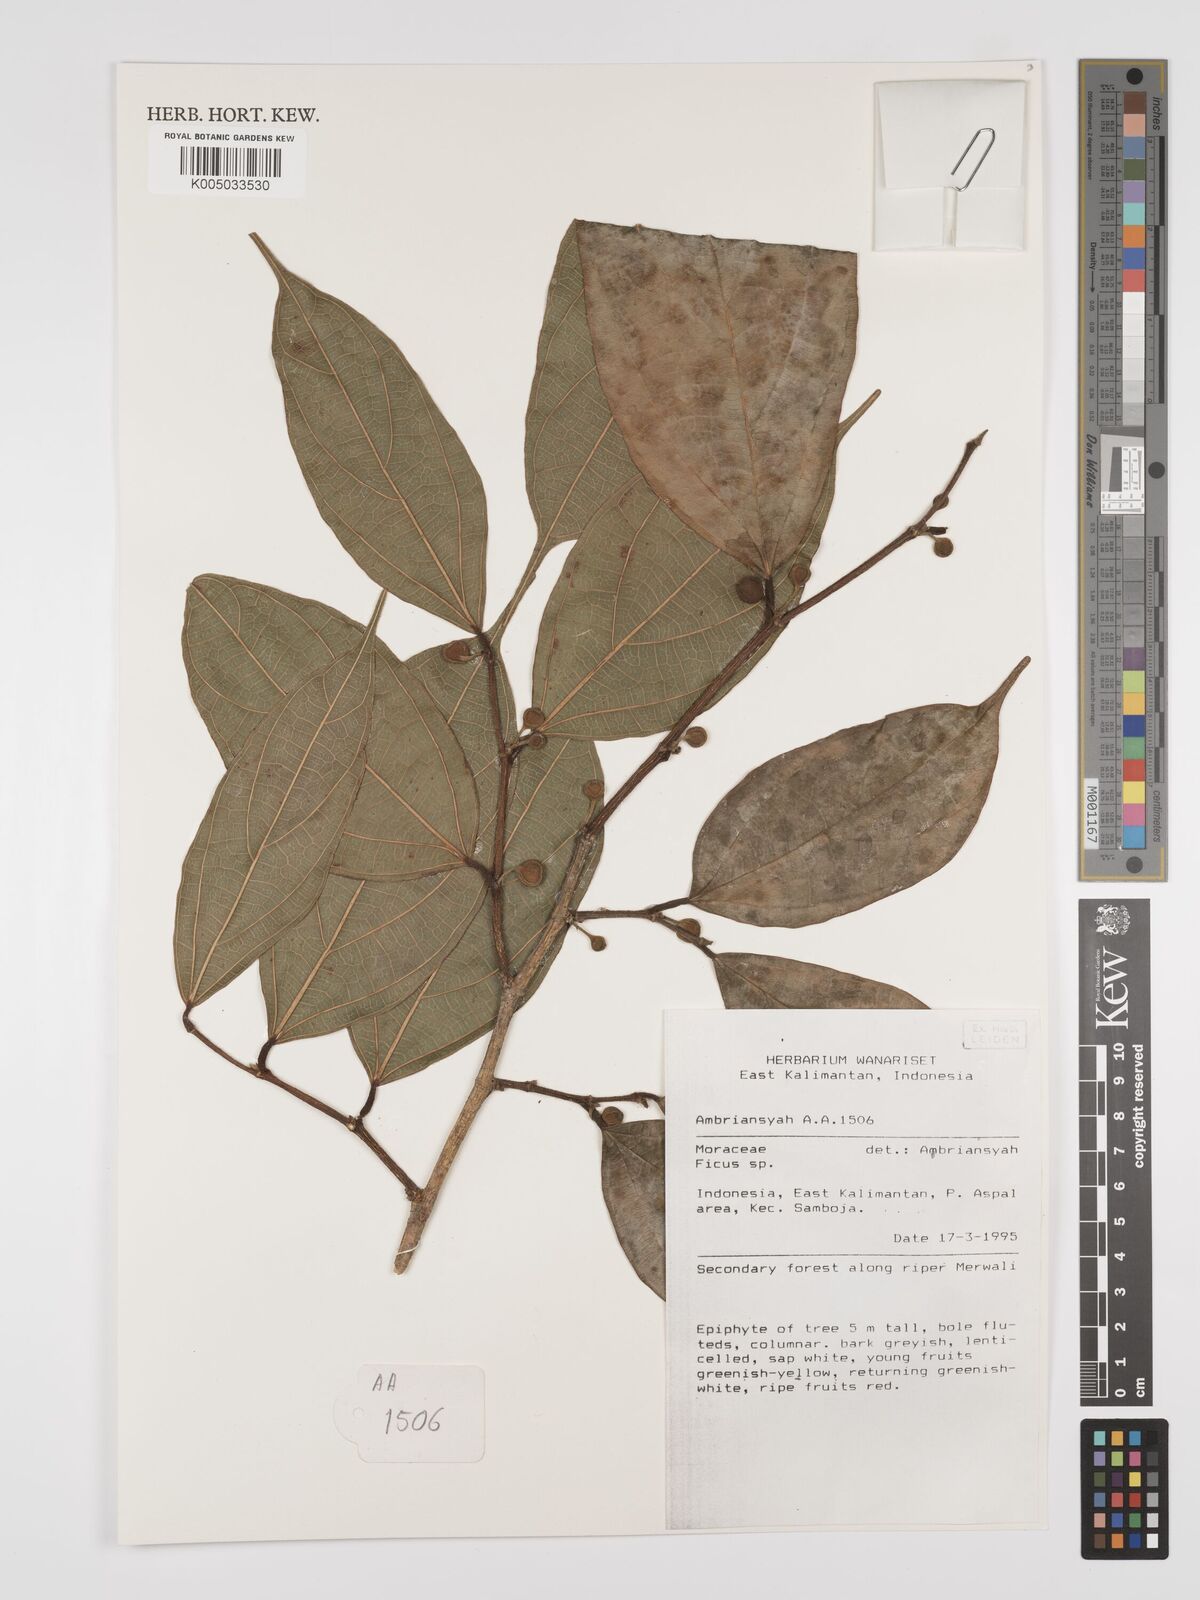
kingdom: Plantae
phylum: Tracheophyta
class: Magnoliopsida
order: Rosales
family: Moraceae
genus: Ficus
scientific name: Ficus
